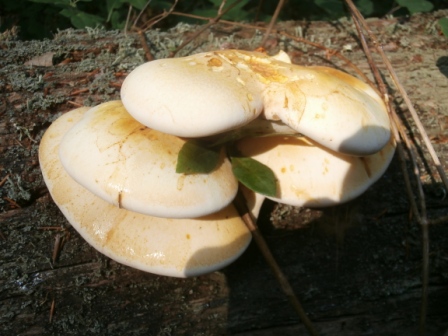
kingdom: Fungi
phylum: Basidiomycota
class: Agaricomycetes
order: Polyporales
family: Fomitopsidaceae
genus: Buglossoporus
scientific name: Buglossoporus quercinus
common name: egetunge
